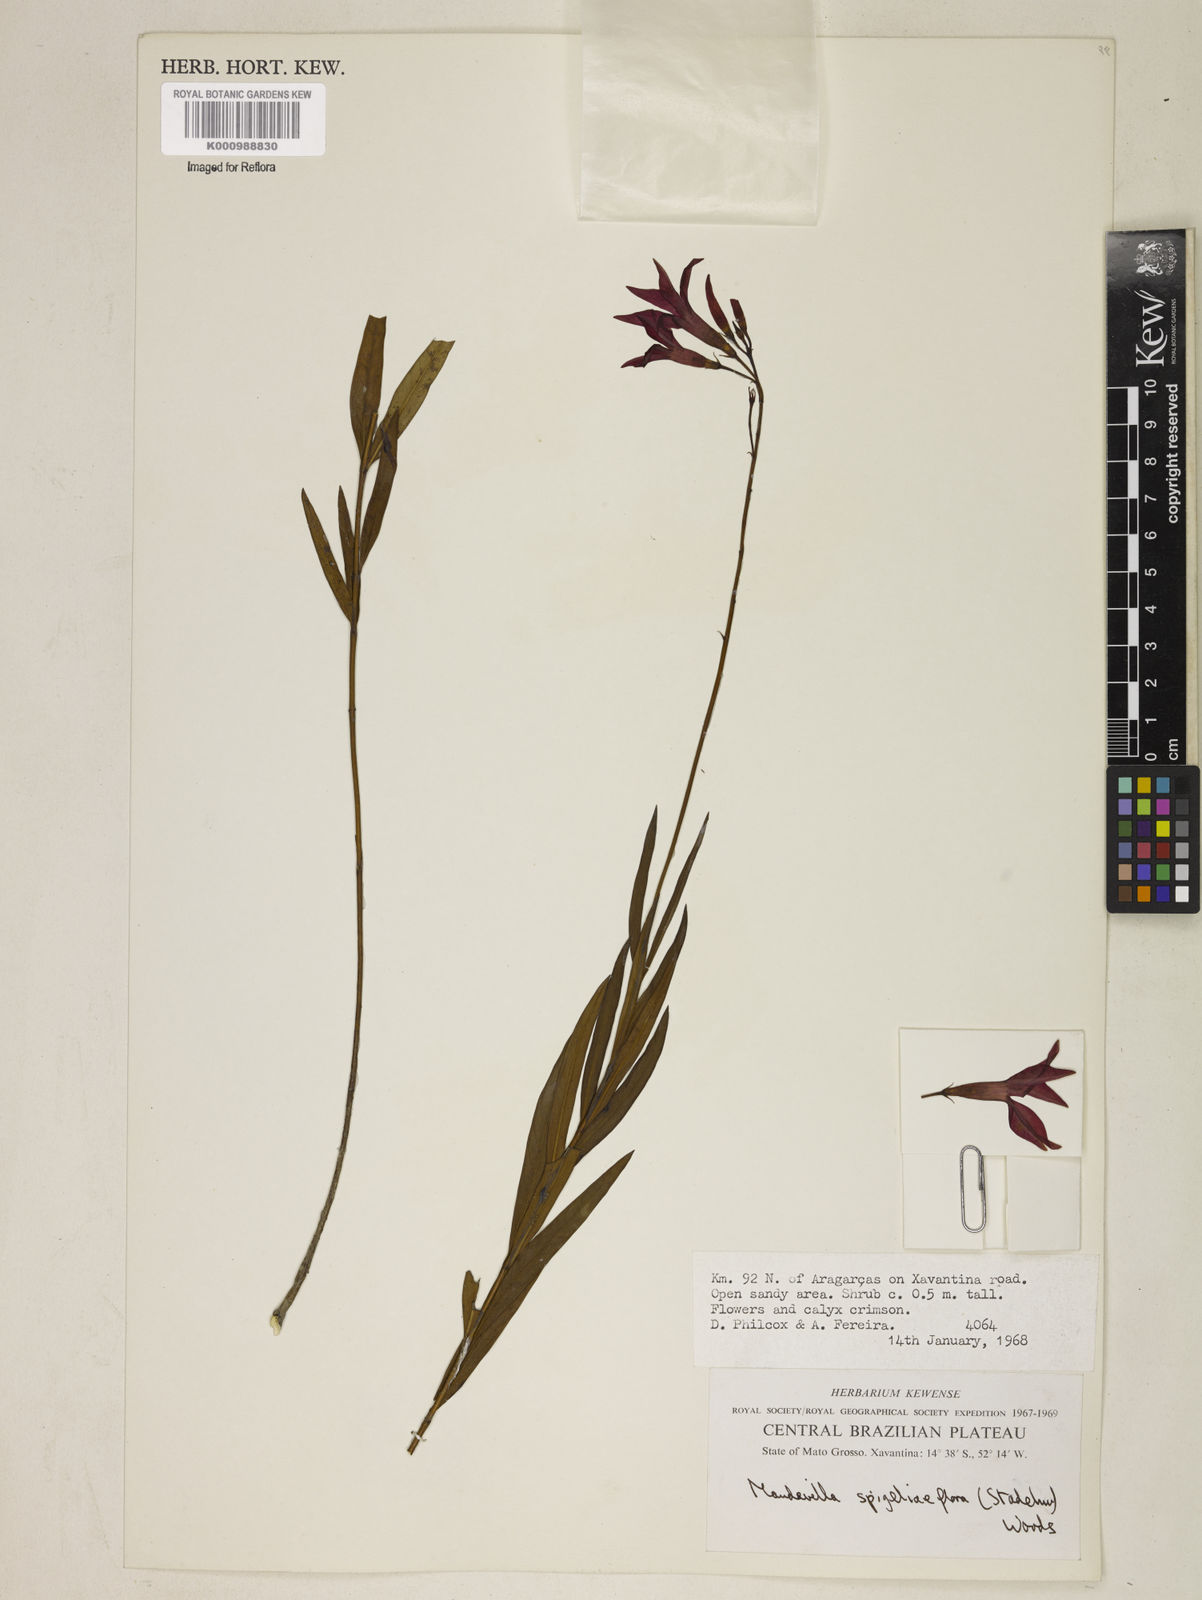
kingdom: Plantae
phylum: Tracheophyta
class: Magnoliopsida
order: Gentianales
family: Apocynaceae
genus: Mandevilla
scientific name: Mandevilla spigeliiflora
